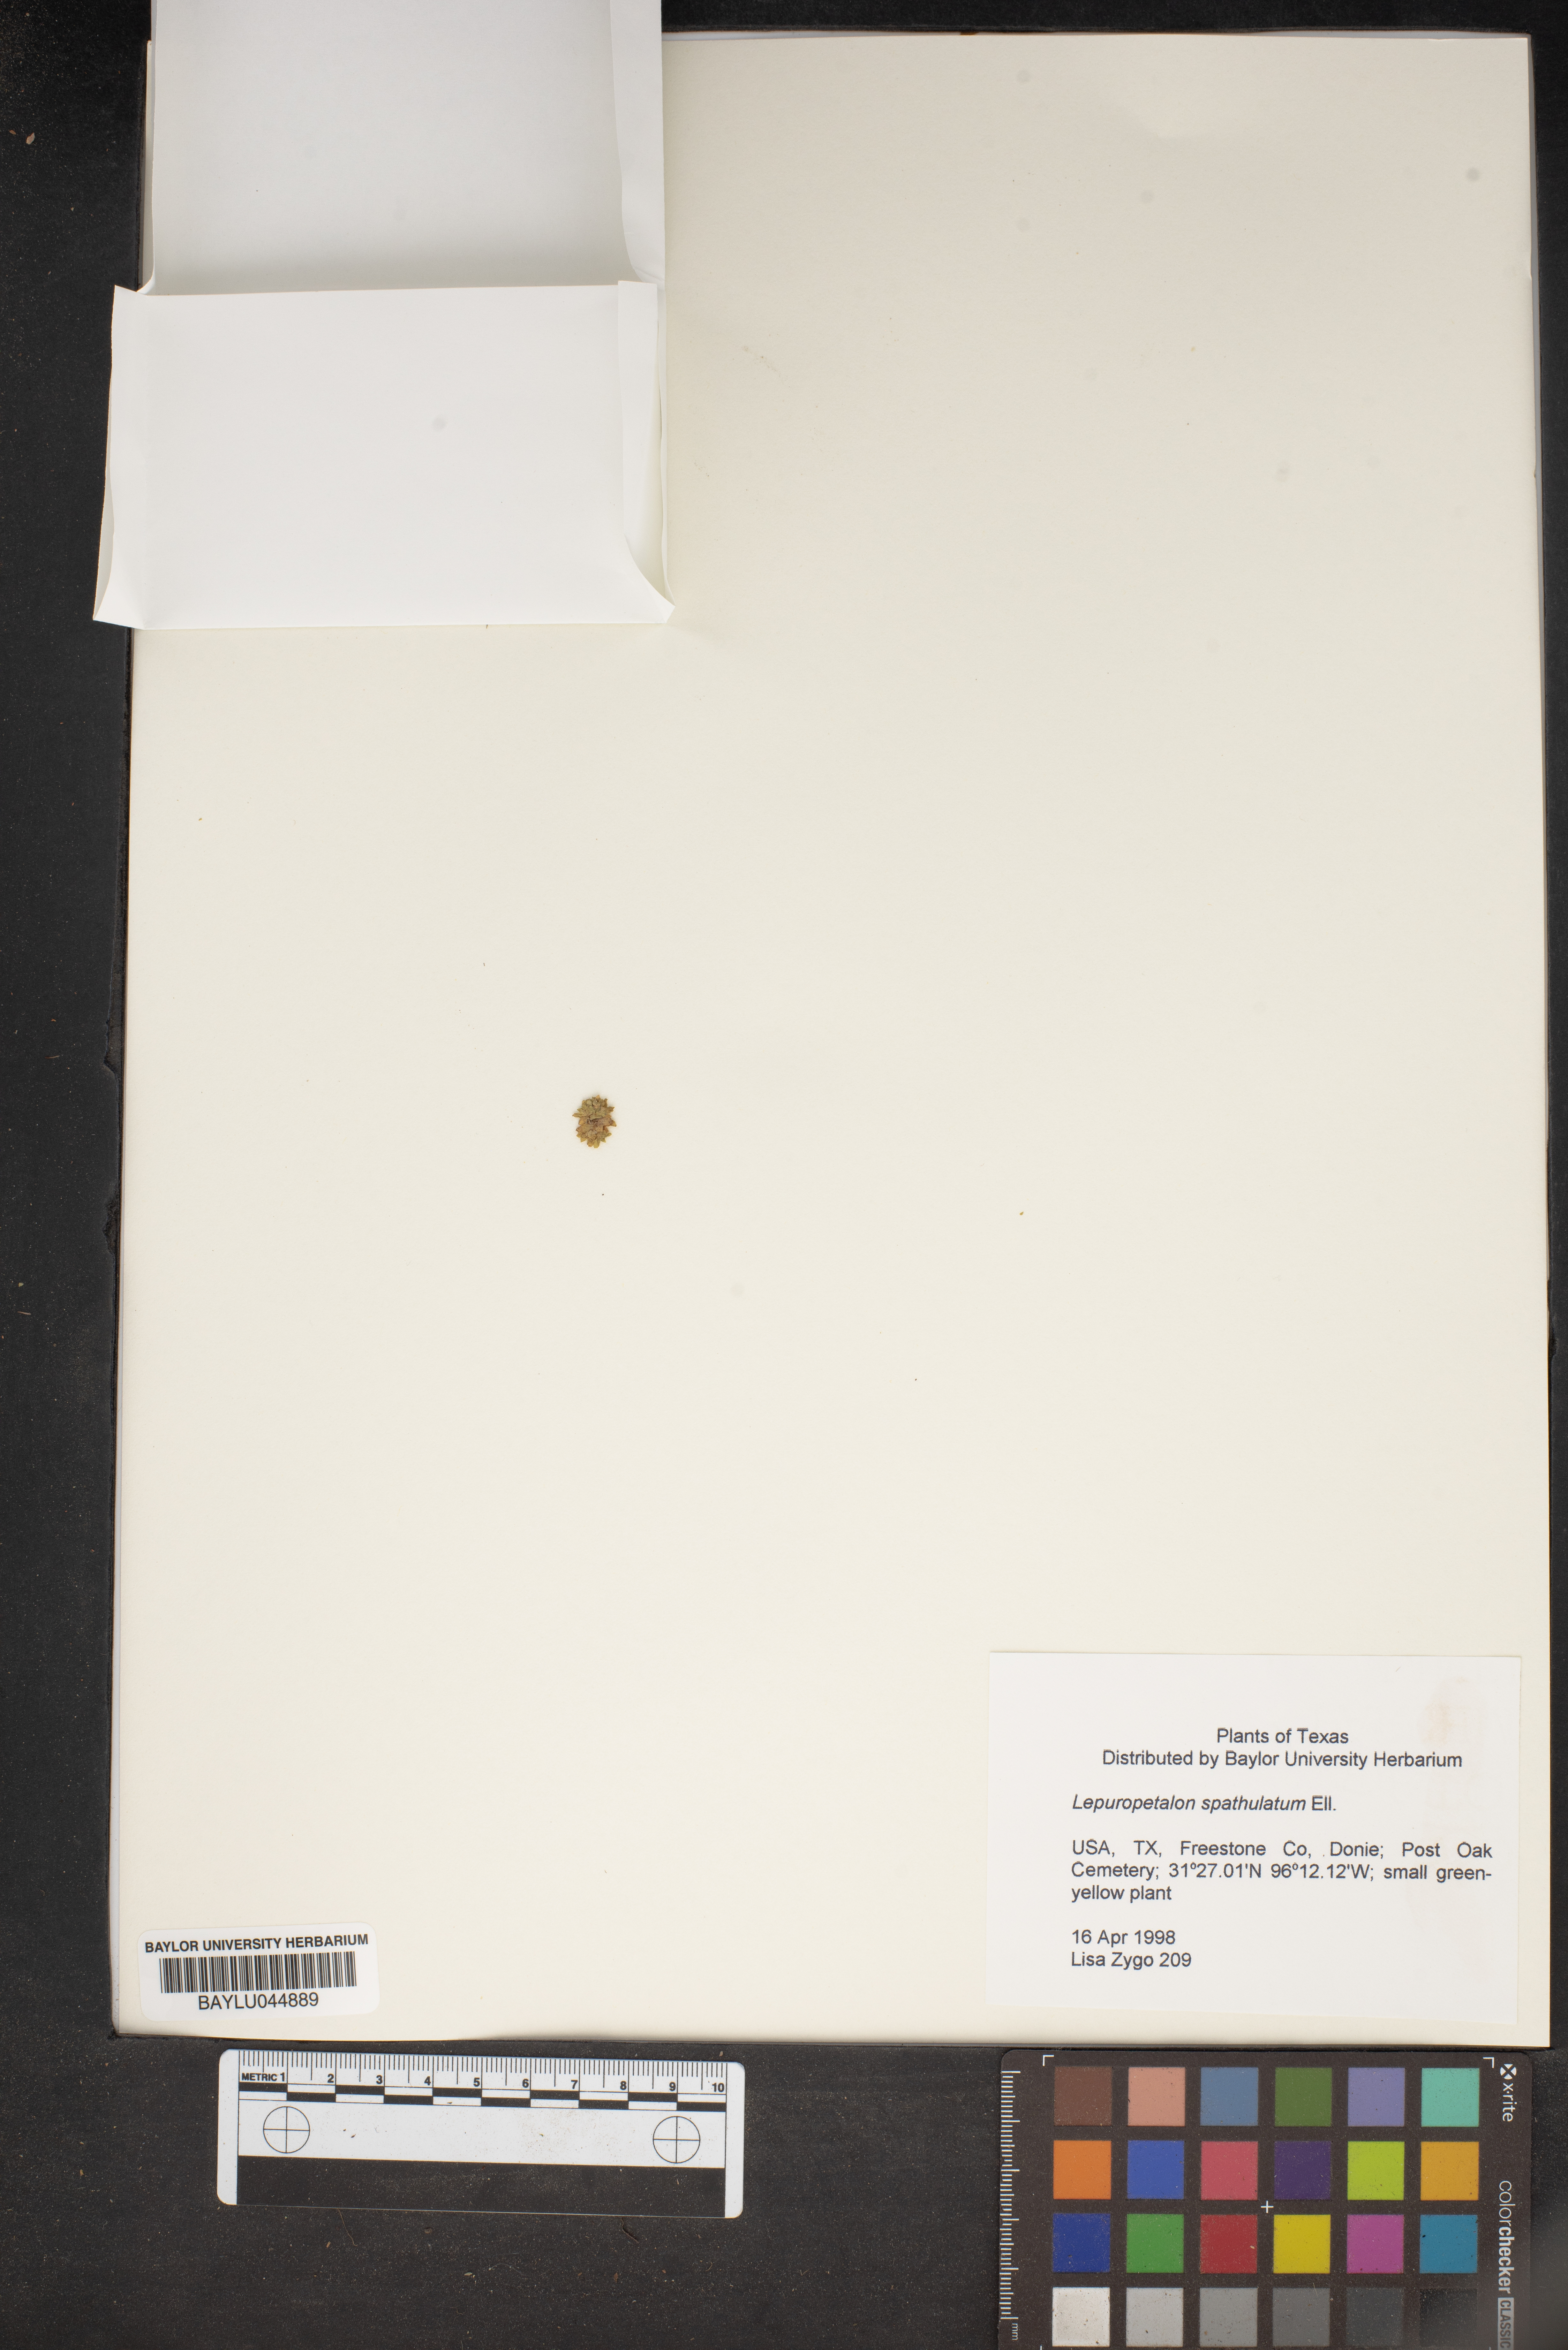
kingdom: Plantae
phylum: Tracheophyta
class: Magnoliopsida
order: Celastrales
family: Parnassiaceae
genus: Lepuropetalon
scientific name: Lepuropetalon spathulatum
